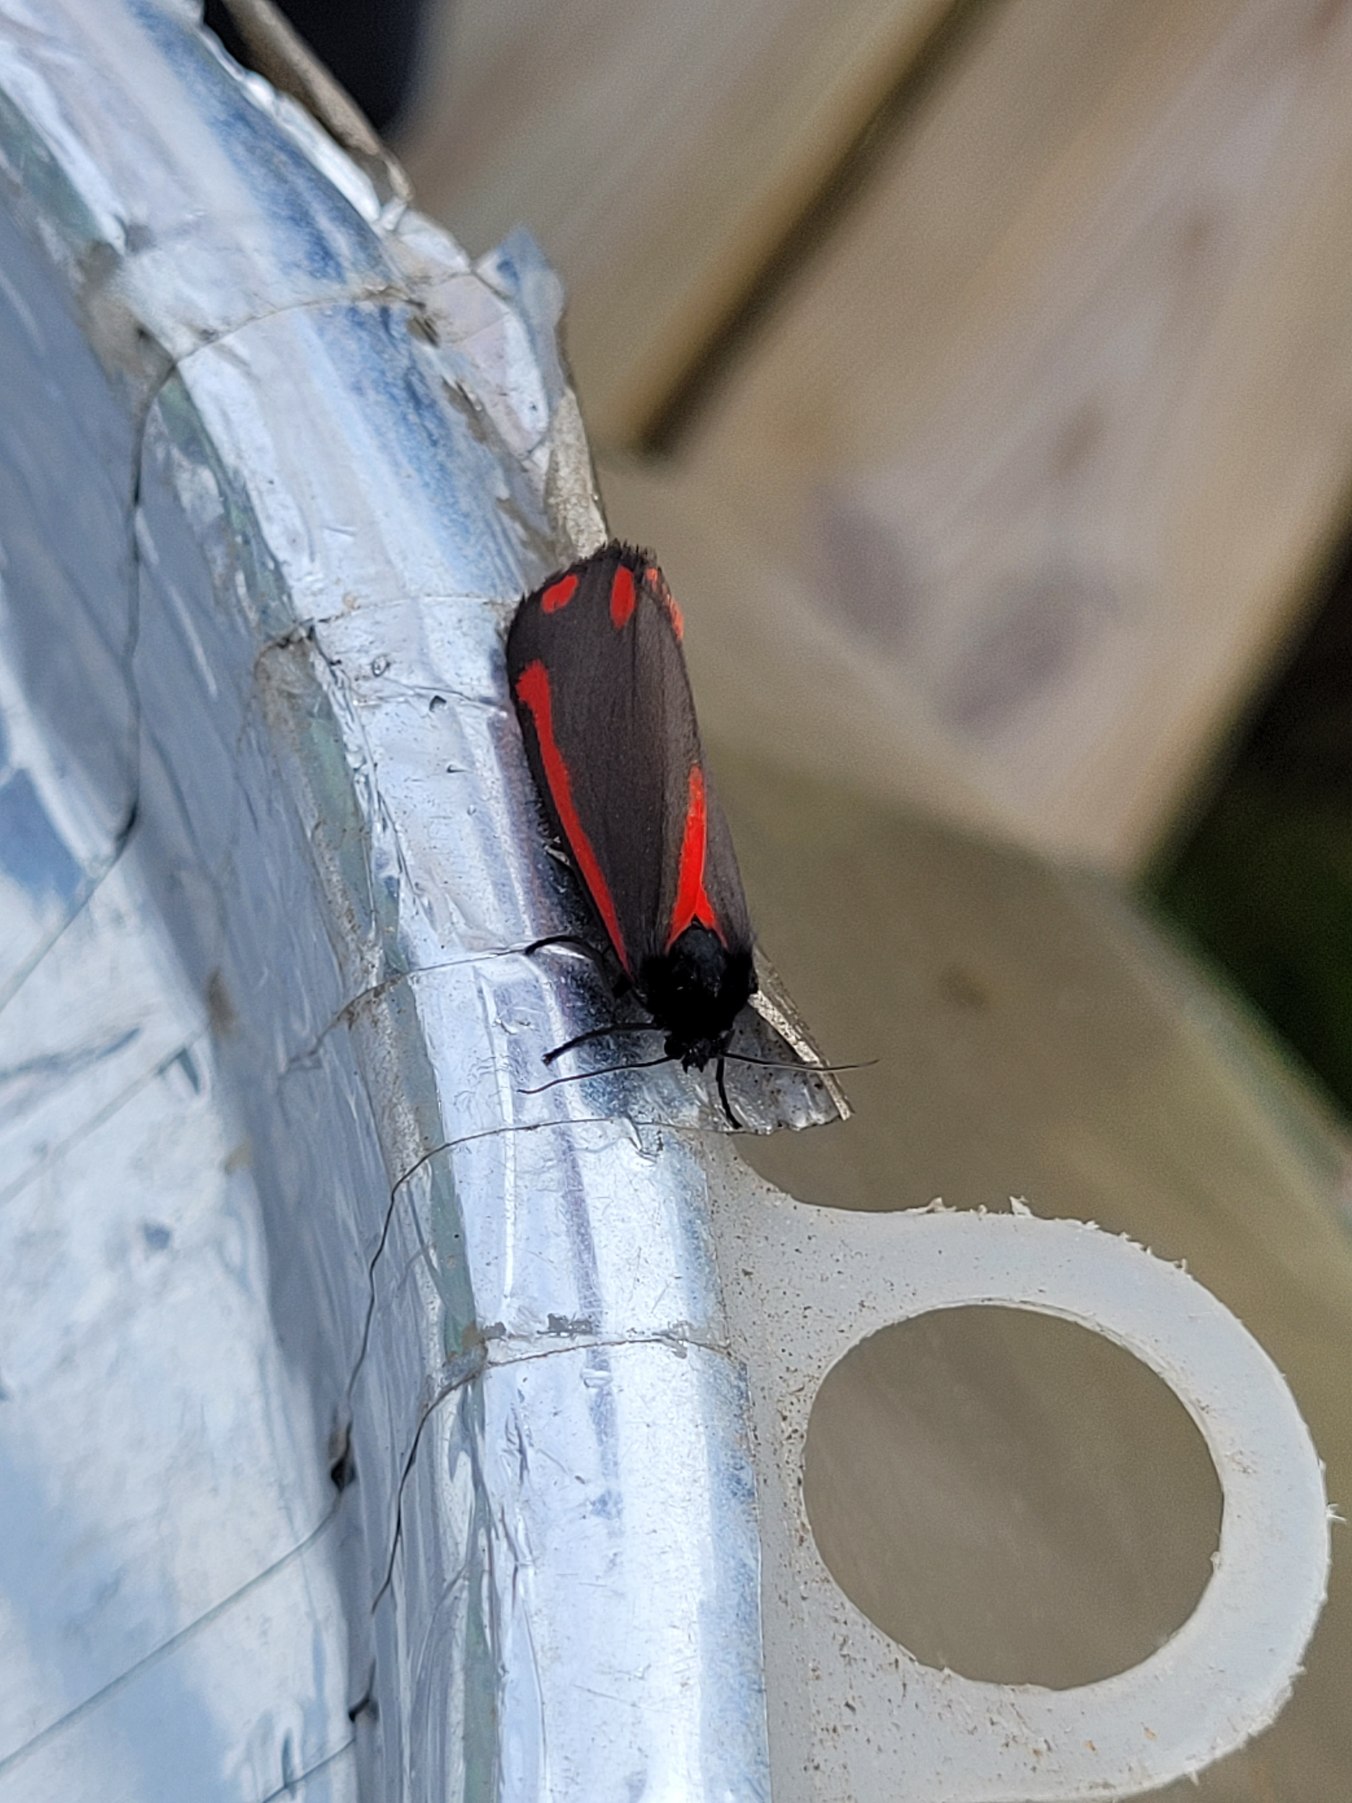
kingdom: Animalia
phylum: Arthropoda
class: Insecta
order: Lepidoptera
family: Erebidae
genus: Tyria
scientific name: Tyria jacobaeae
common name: Blodplet
